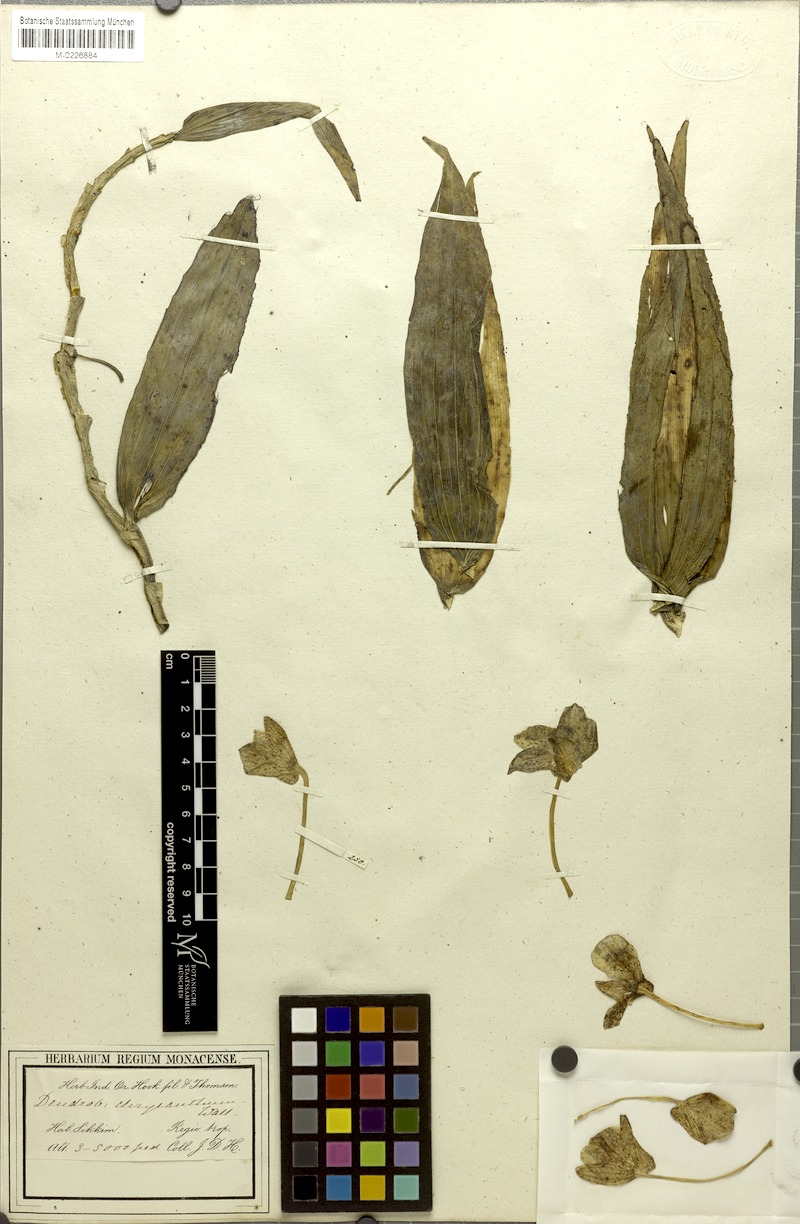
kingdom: Plantae
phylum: Tracheophyta
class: Liliopsida
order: Asparagales
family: Orchidaceae
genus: Dendrobium
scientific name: Dendrobium chrysanthum
